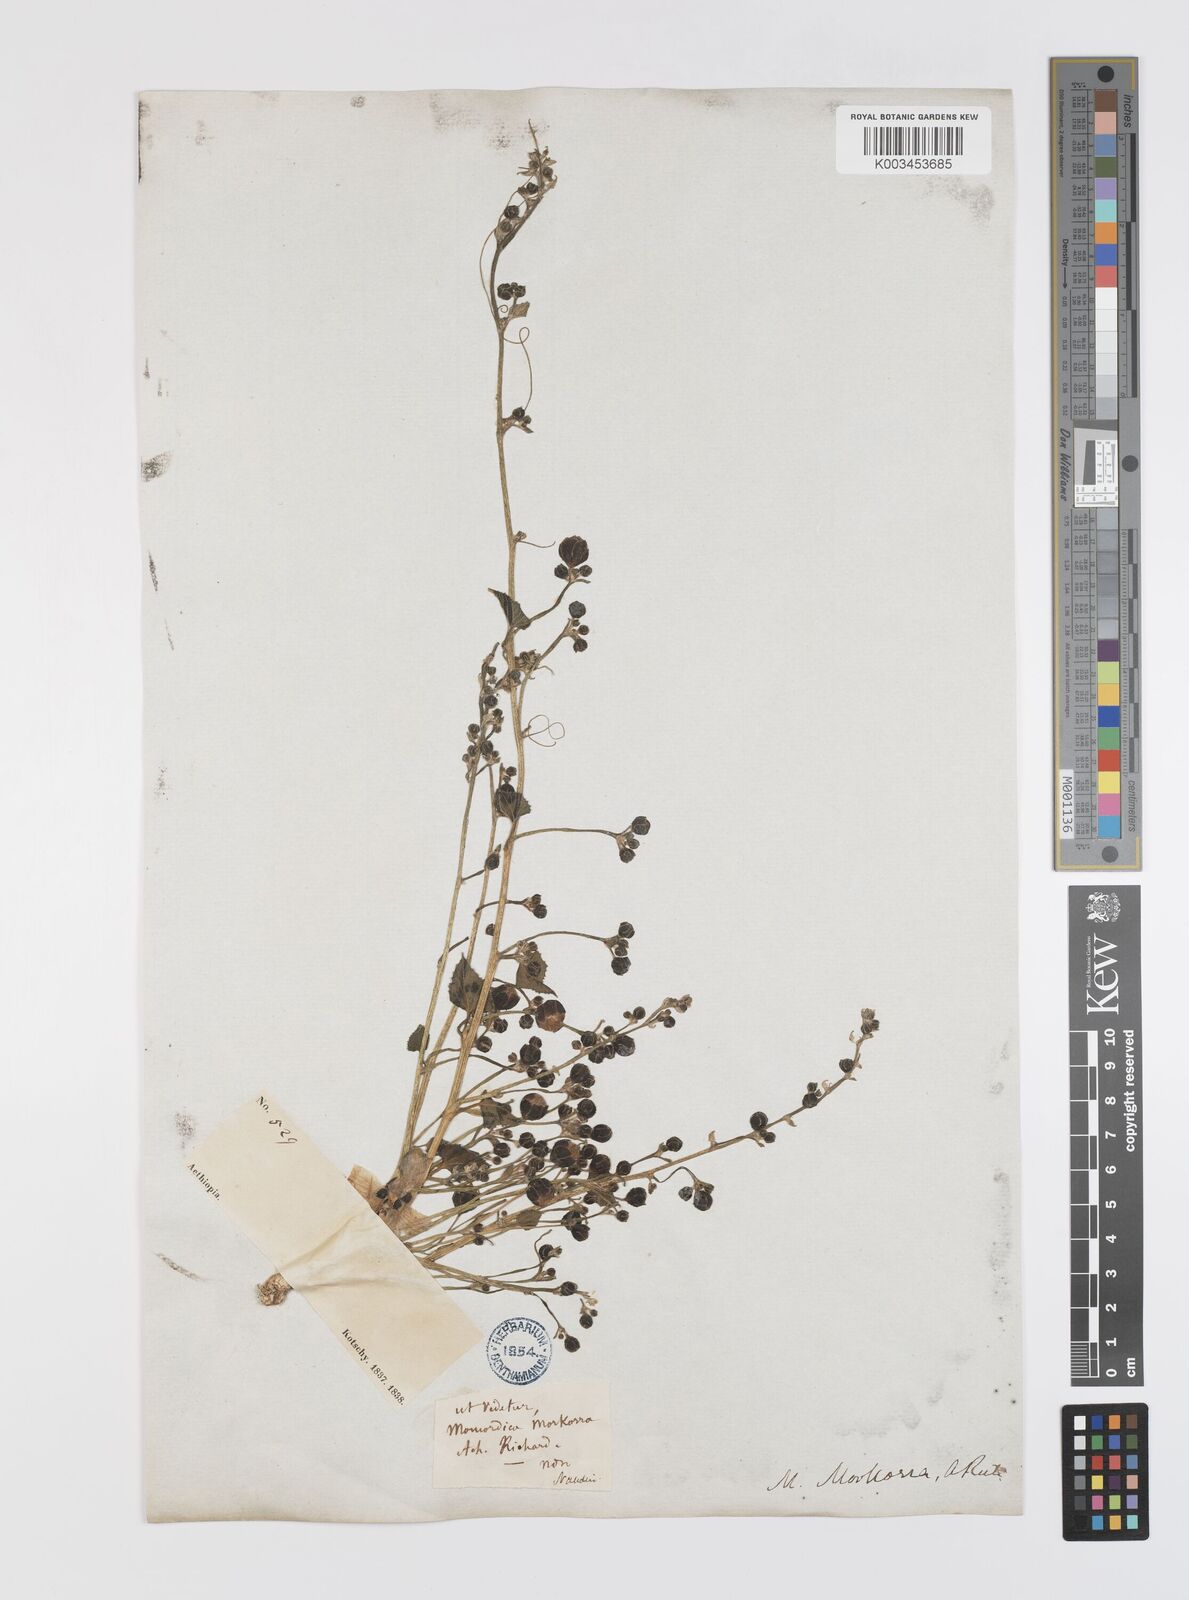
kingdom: Plantae
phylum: Tracheophyta
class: Magnoliopsida
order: Cucurbitales
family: Cucurbitaceae
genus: Momordica
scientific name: Momordica foetida
